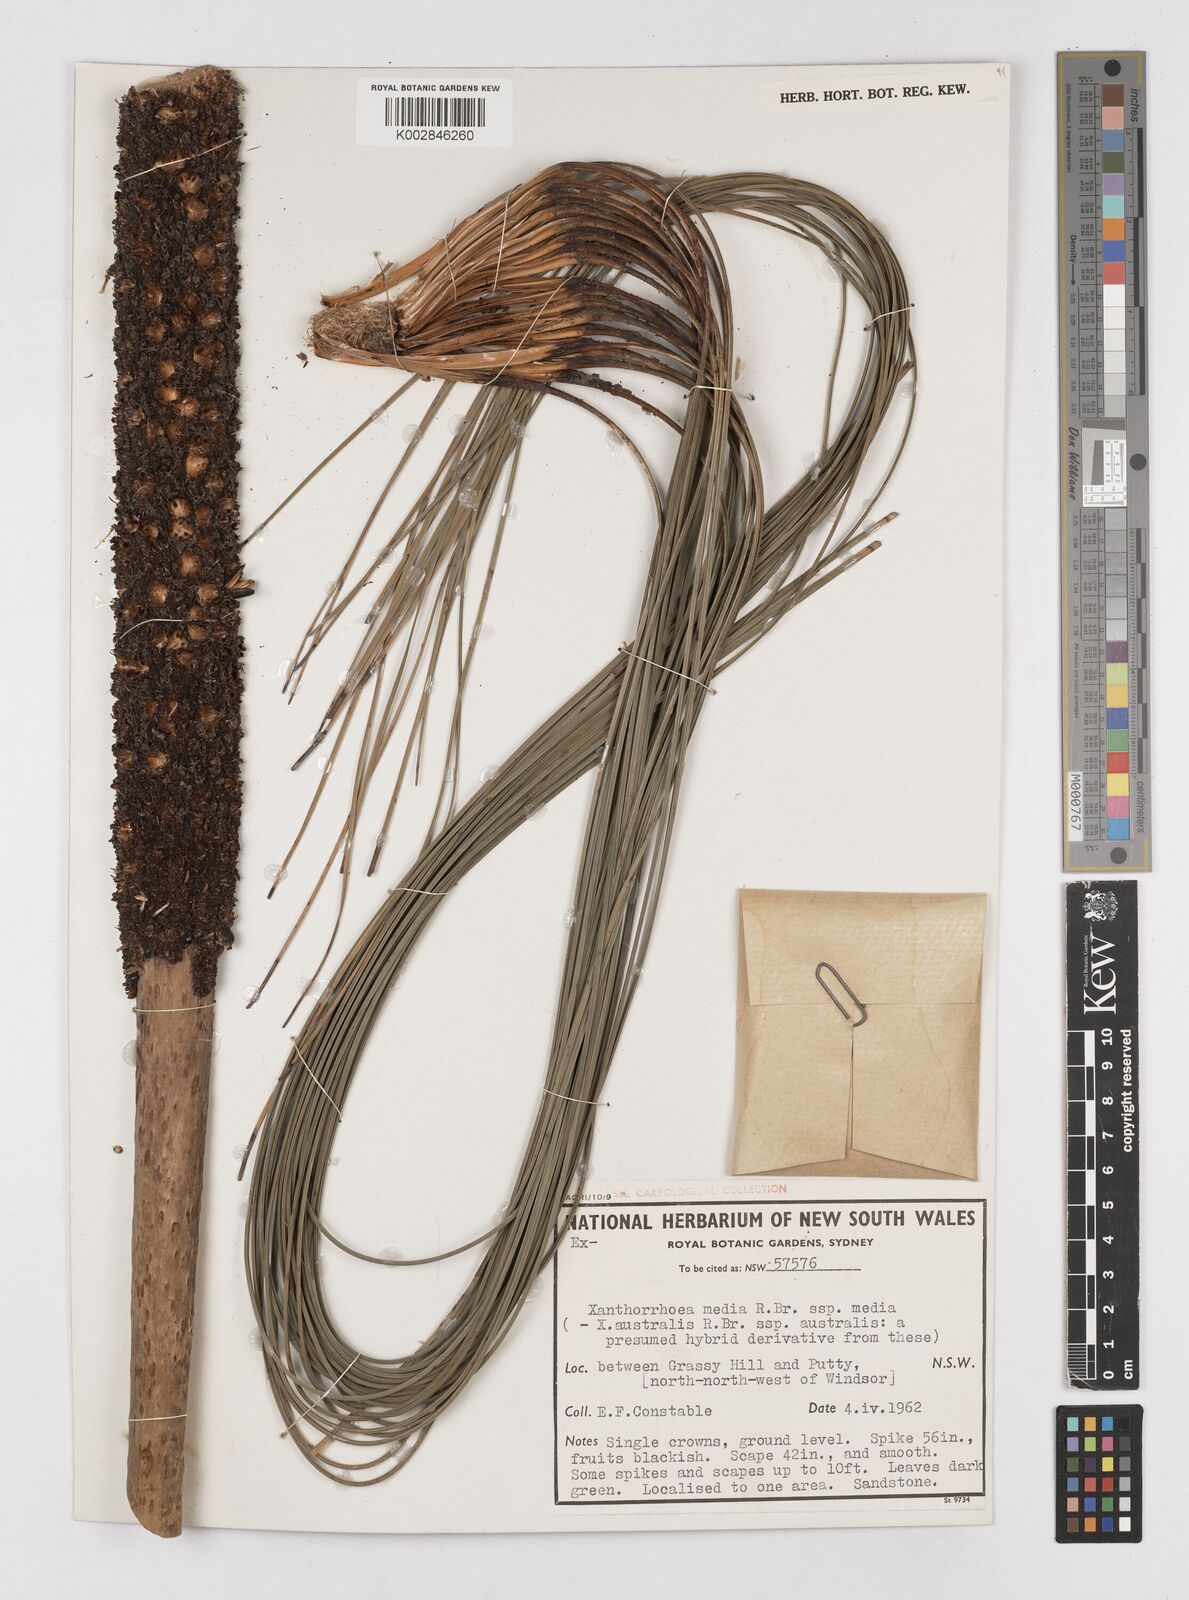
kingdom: Plantae
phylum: Tracheophyta
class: Liliopsida
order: Asparagales
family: Asphodelaceae
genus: Xanthorrhoea
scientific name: Xanthorrhoea media
